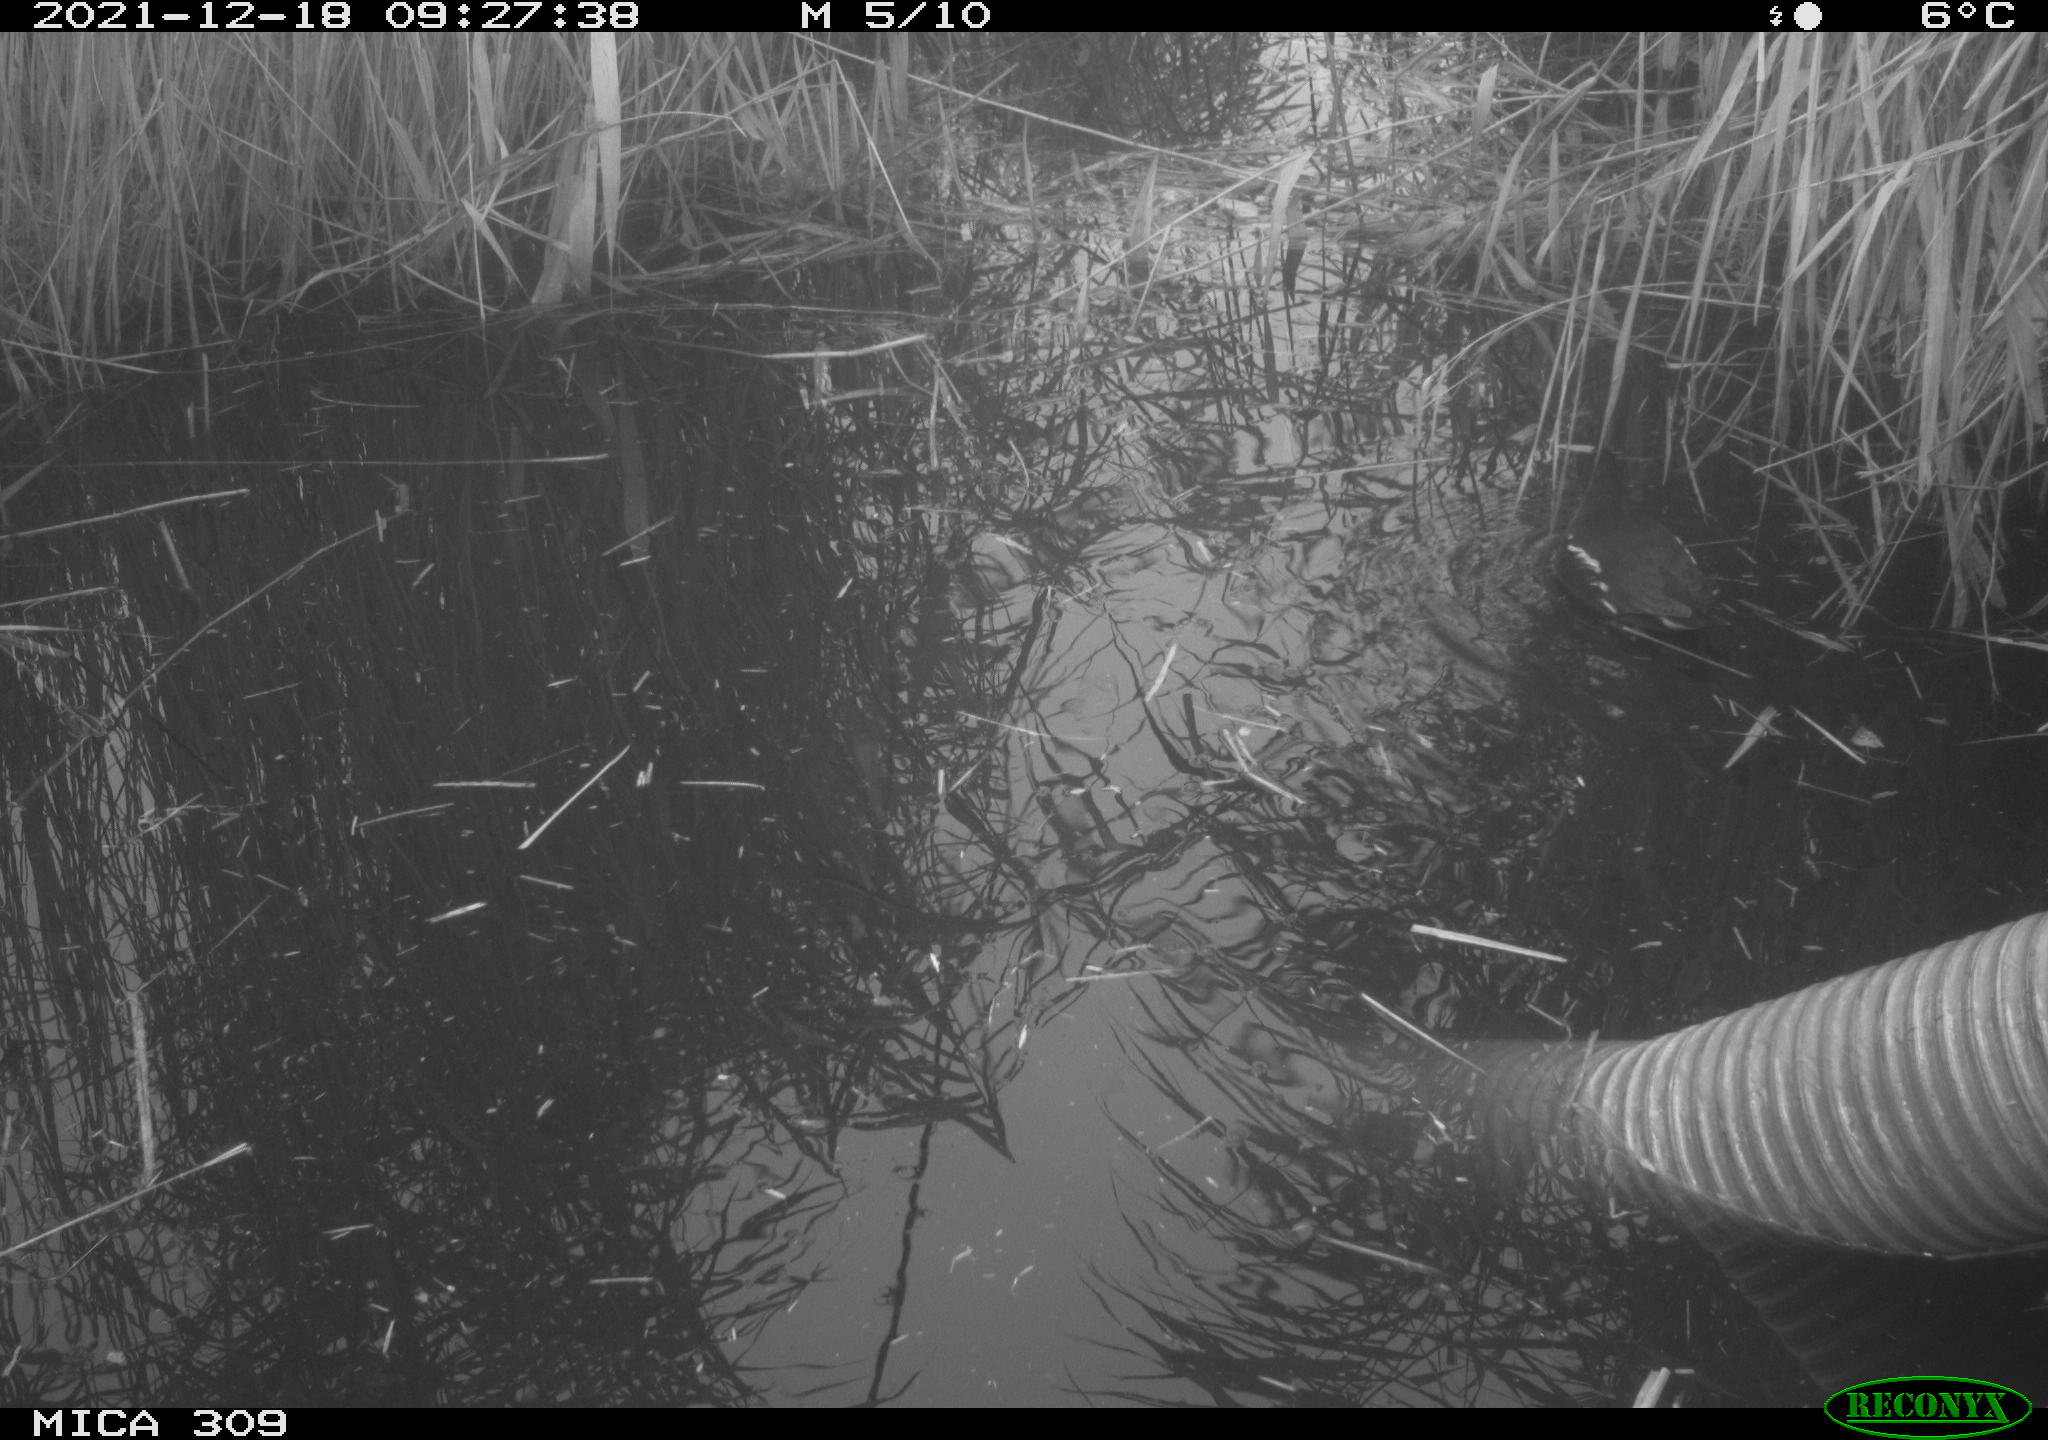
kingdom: Animalia
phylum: Chordata
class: Aves
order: Gruiformes
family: Rallidae
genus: Gallinula
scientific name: Gallinula chloropus
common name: Common moorhen
